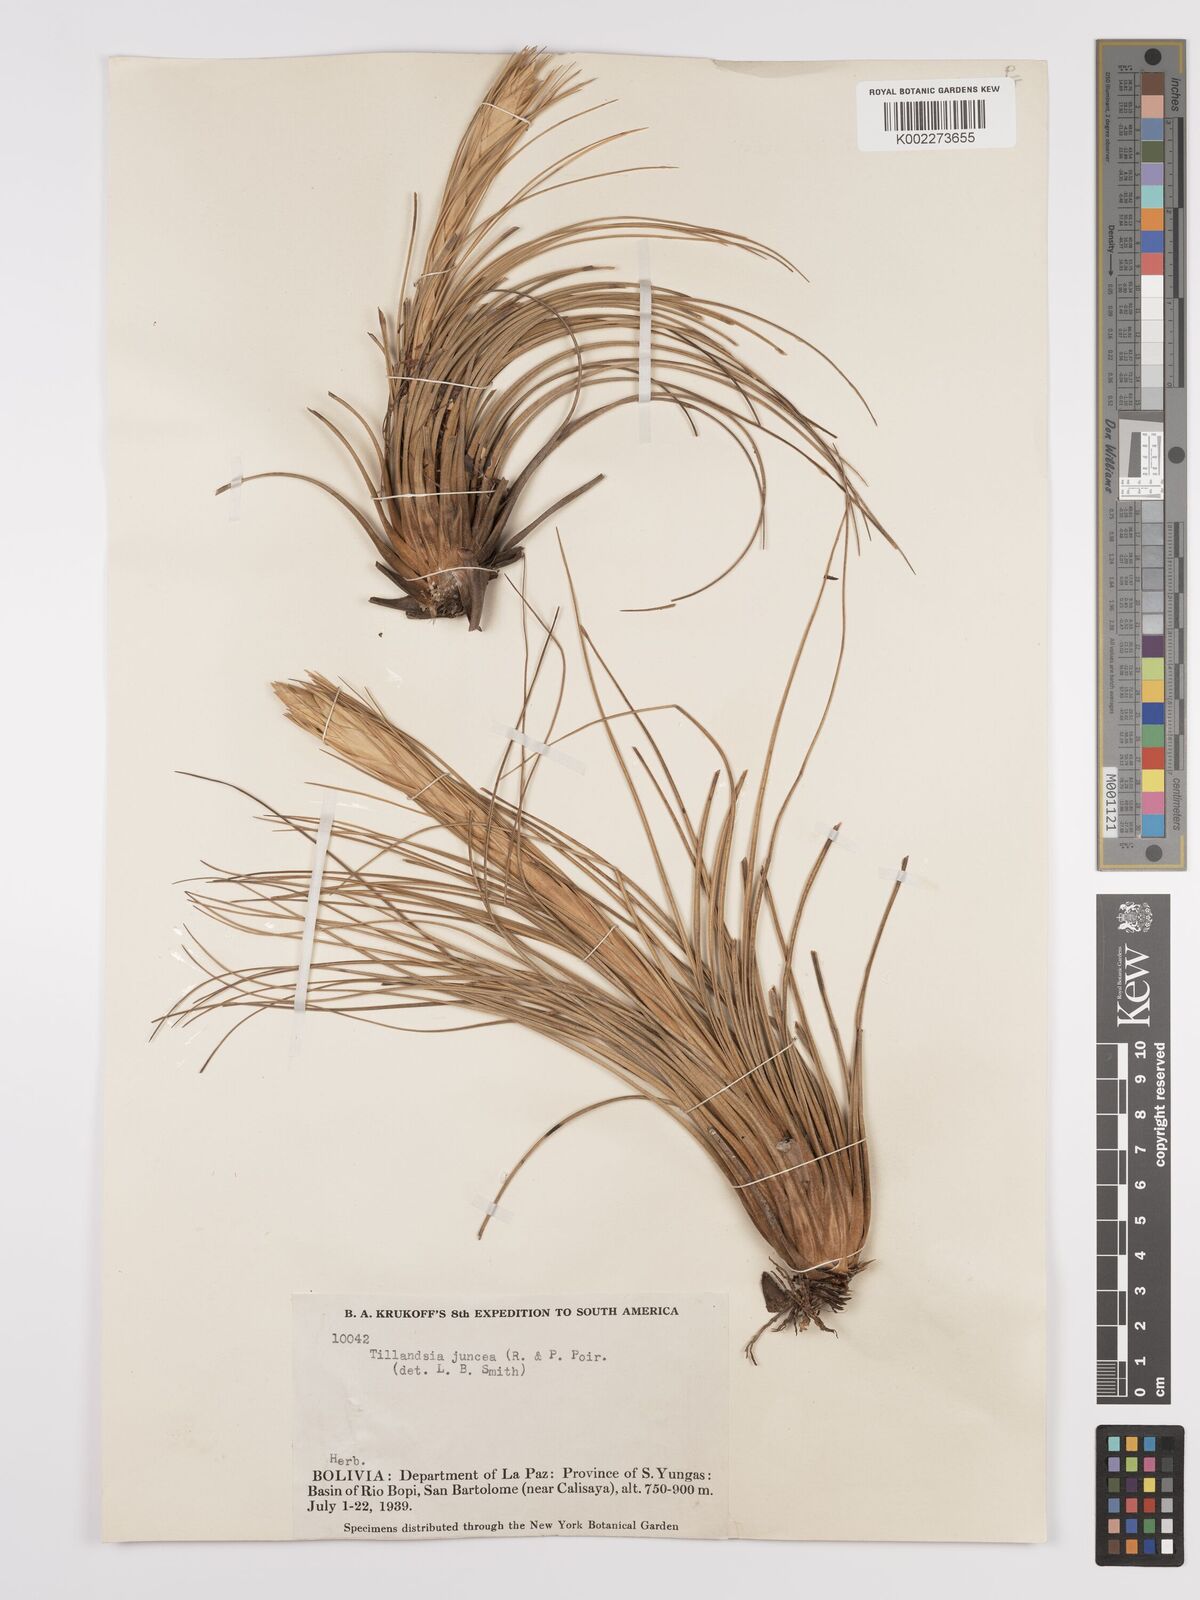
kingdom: Plantae
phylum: Tracheophyta
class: Liliopsida
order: Poales
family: Bromeliaceae
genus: Tillandsia
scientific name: Tillandsia juncea
